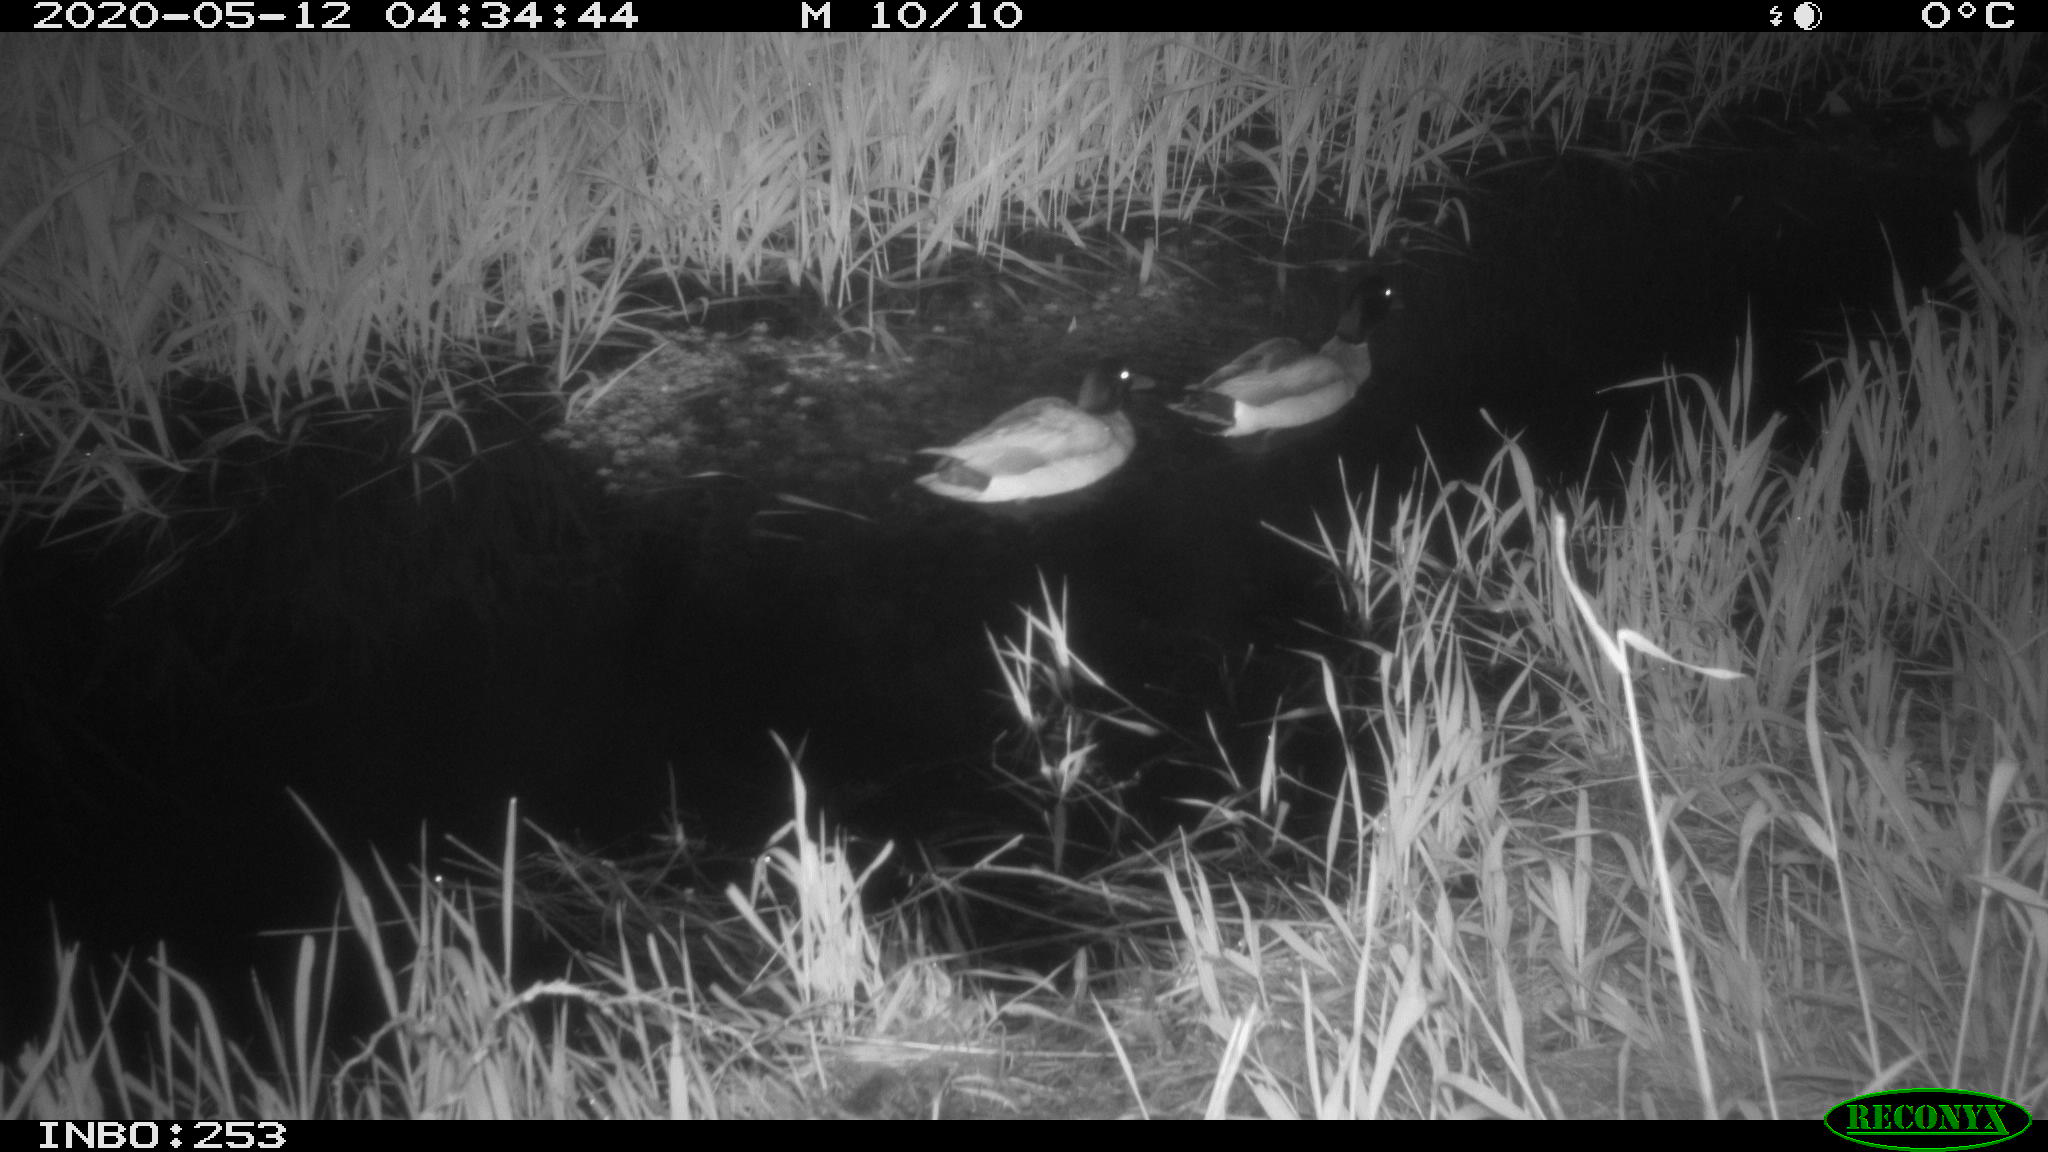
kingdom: Animalia
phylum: Chordata
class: Aves
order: Anseriformes
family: Anatidae
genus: Anas
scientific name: Anas platyrhynchos
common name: Mallard
